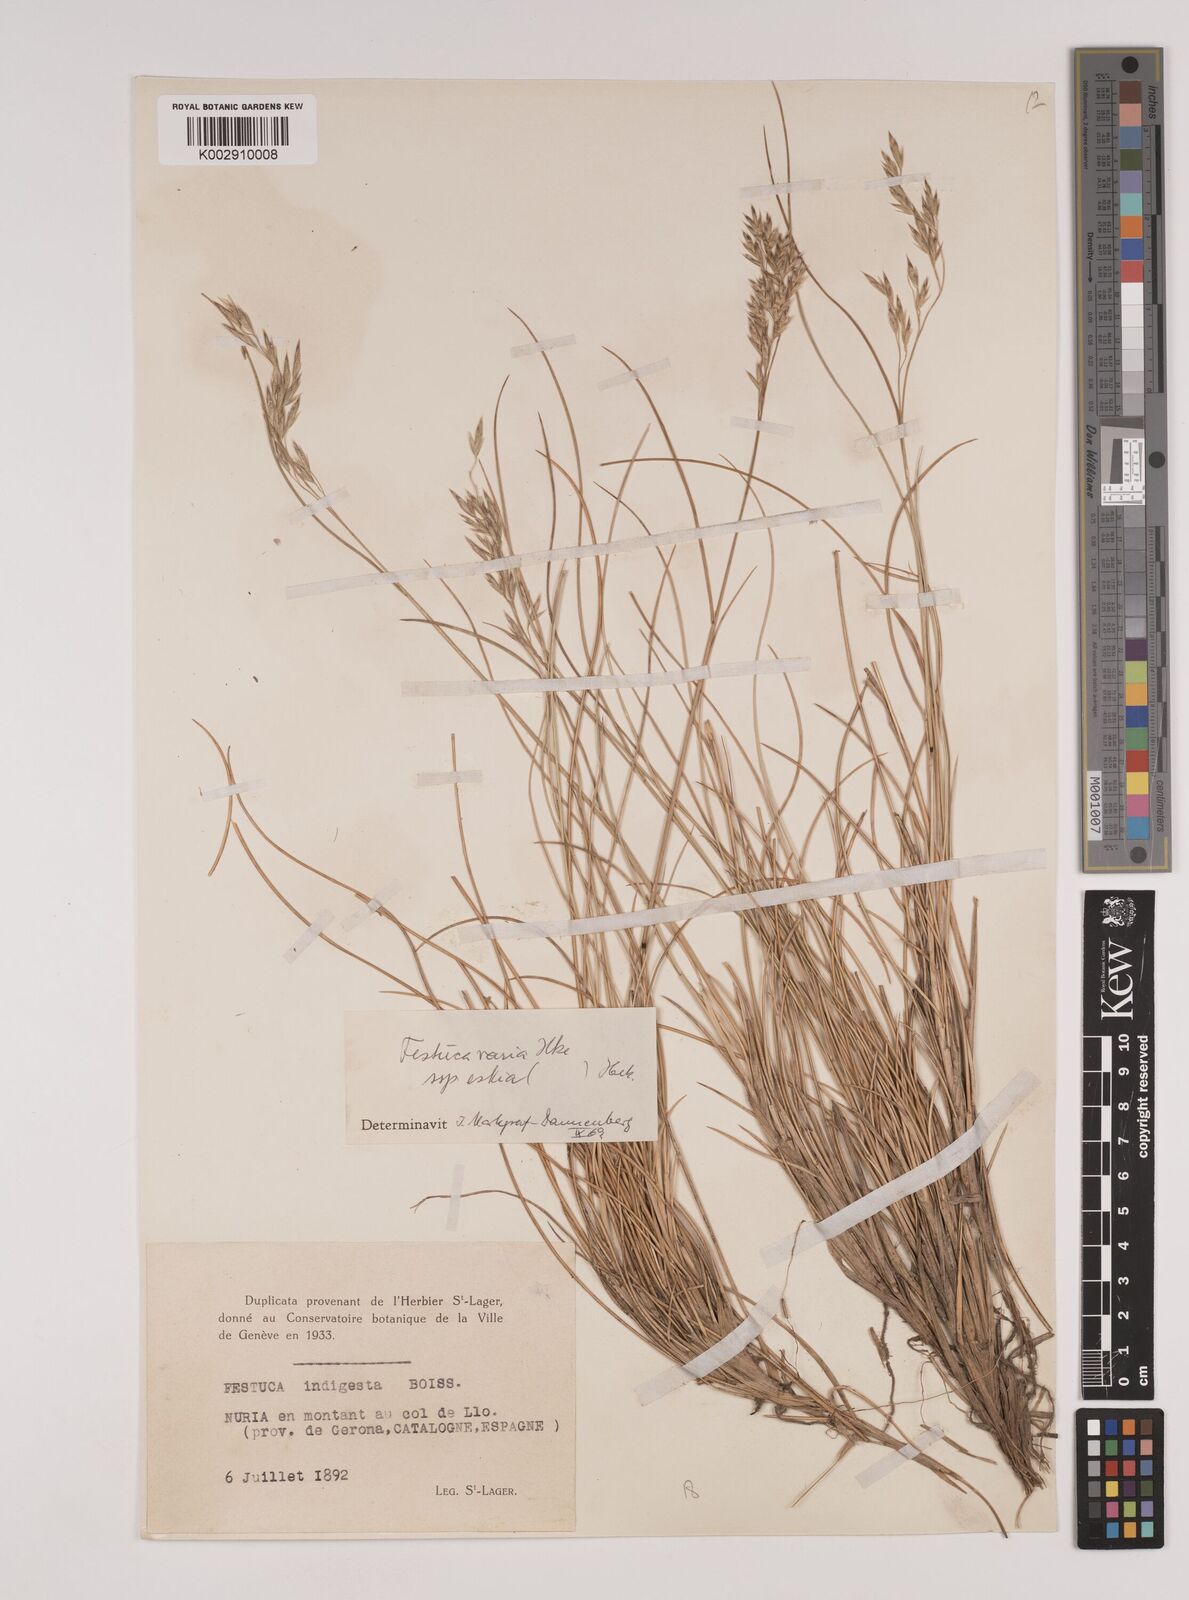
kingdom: Plantae
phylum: Tracheophyta
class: Liliopsida
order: Poales
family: Poaceae
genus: Festuca
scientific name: Festuca eskia
